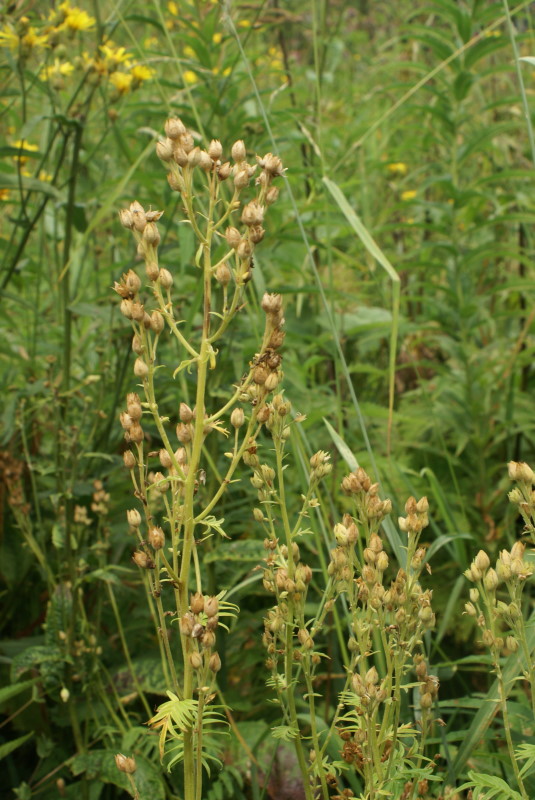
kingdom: Plantae
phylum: Tracheophyta
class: Magnoliopsida
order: Ericales
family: Polemoniaceae
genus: Polemonium
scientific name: Polemonium caeruleum
